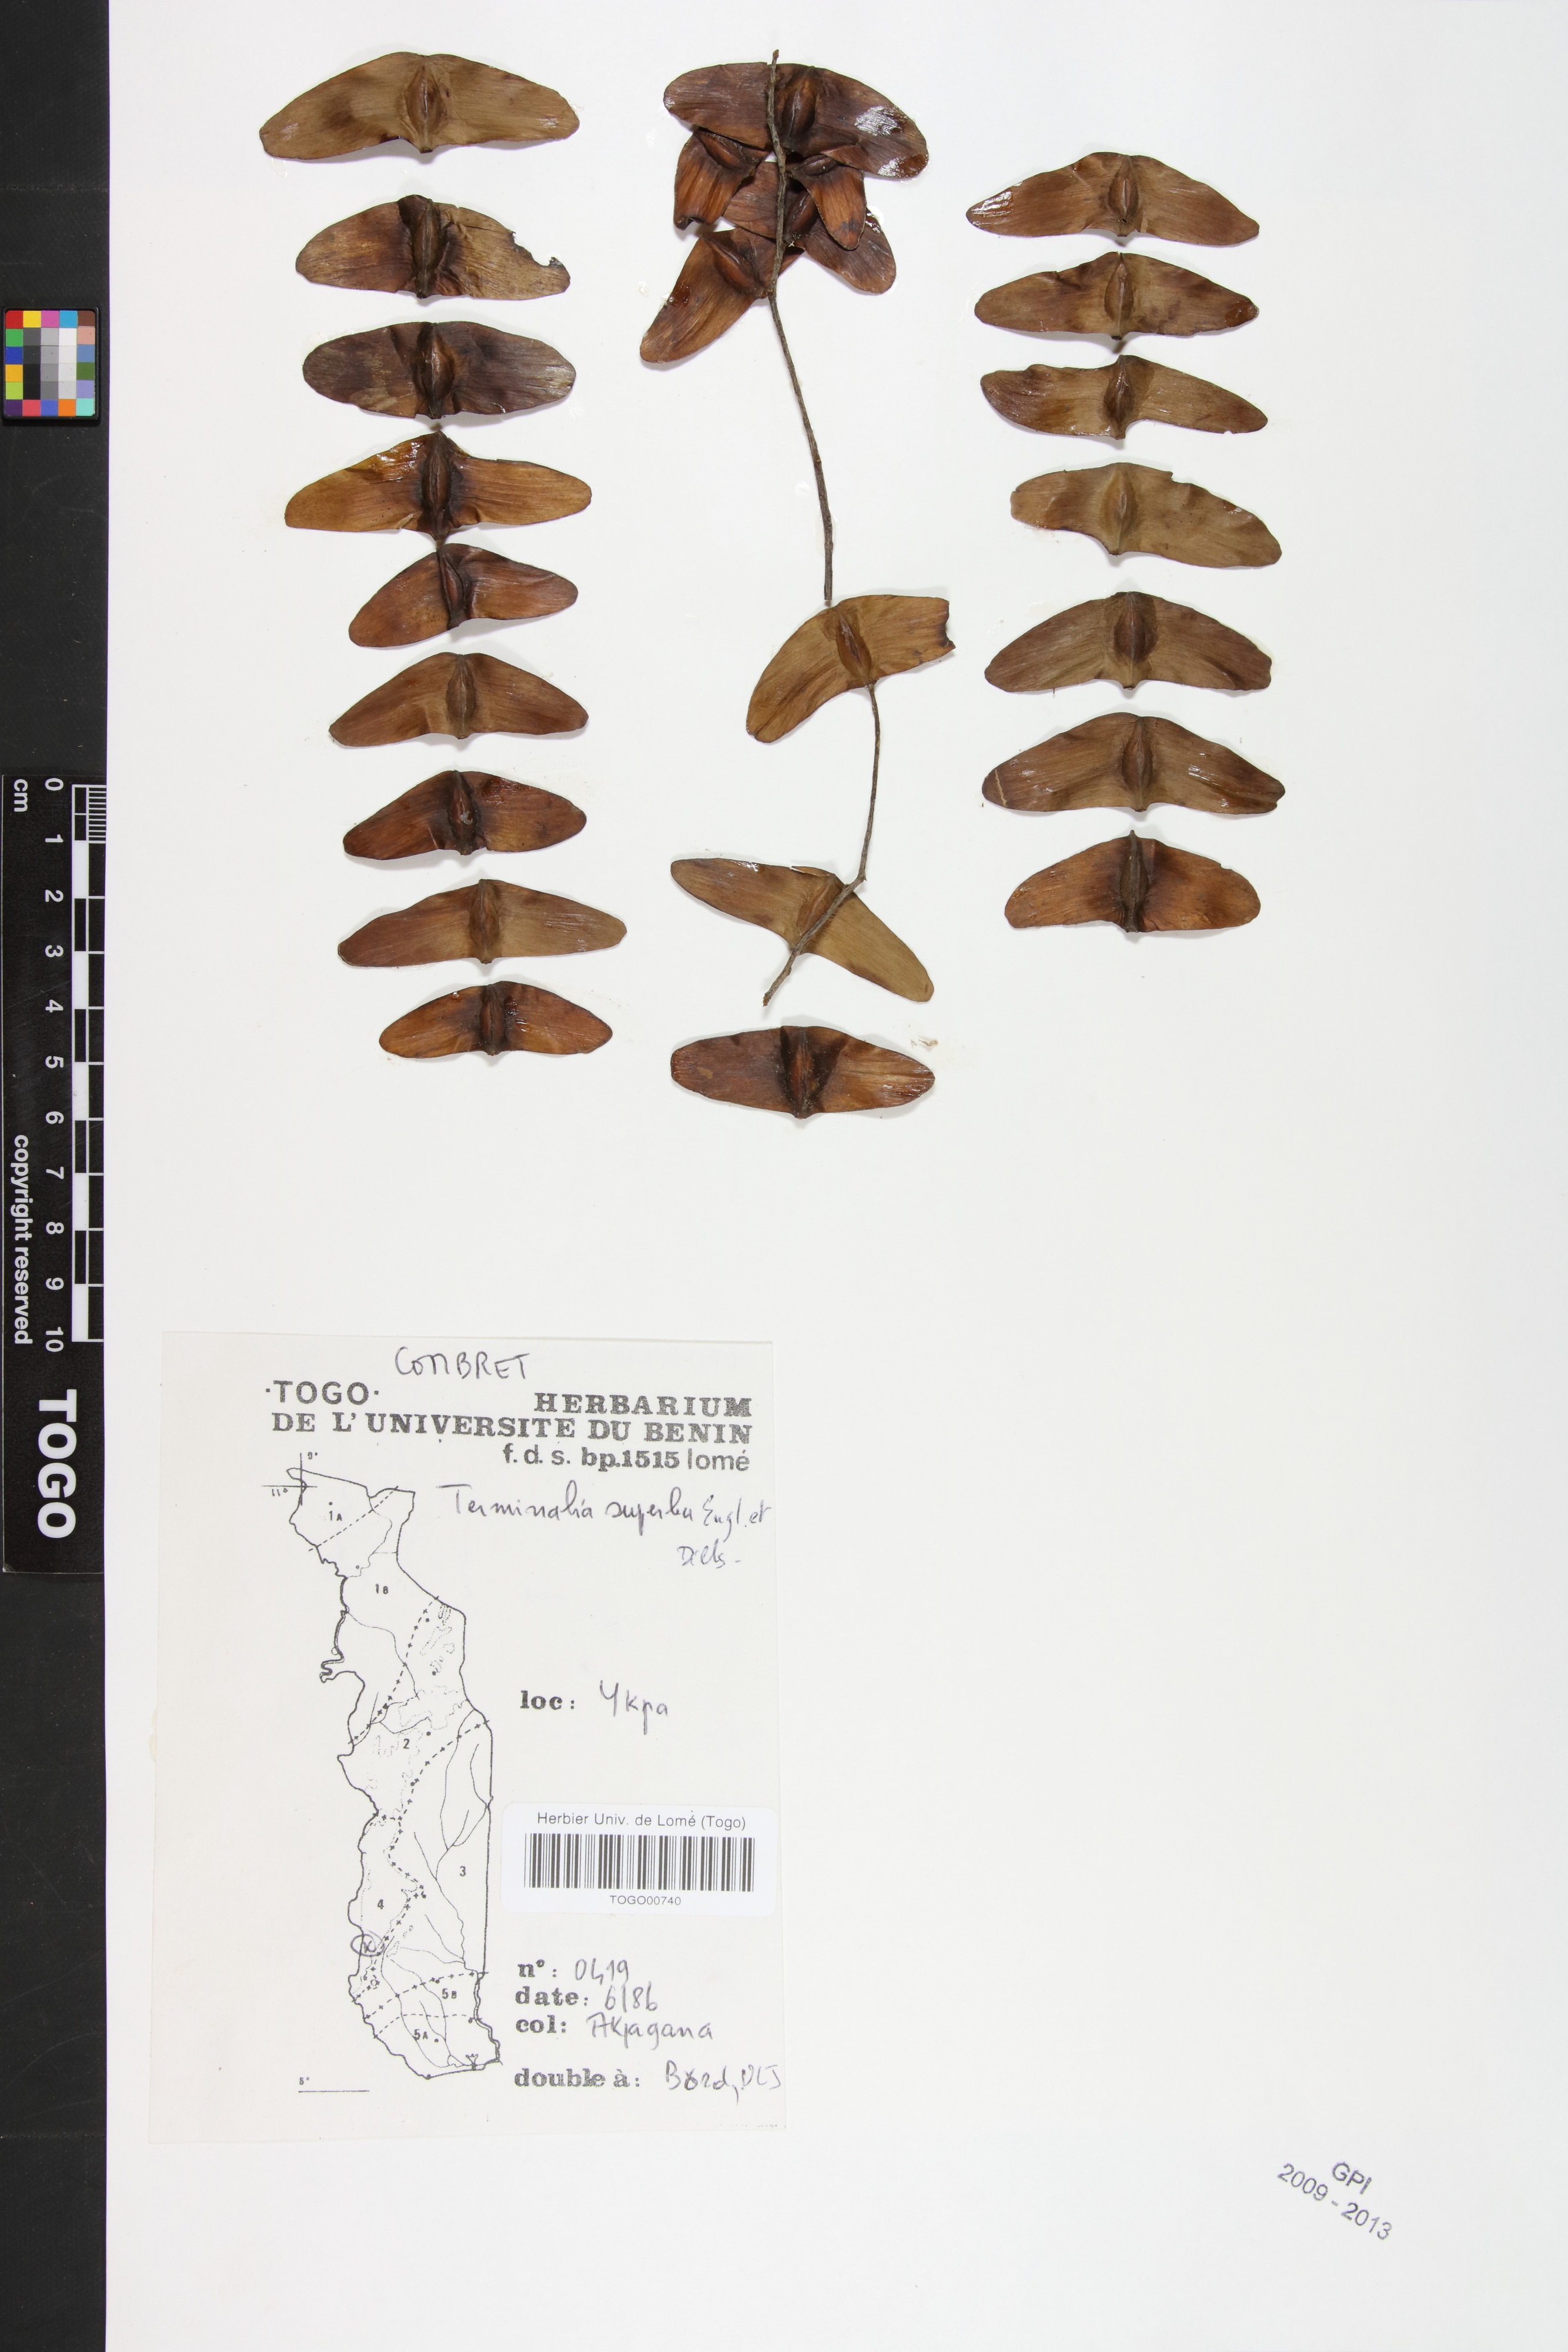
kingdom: Plantae
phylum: Tracheophyta
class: Magnoliopsida
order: Myrtales
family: Combretaceae
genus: Terminalia
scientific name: Terminalia superba
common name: White afara
